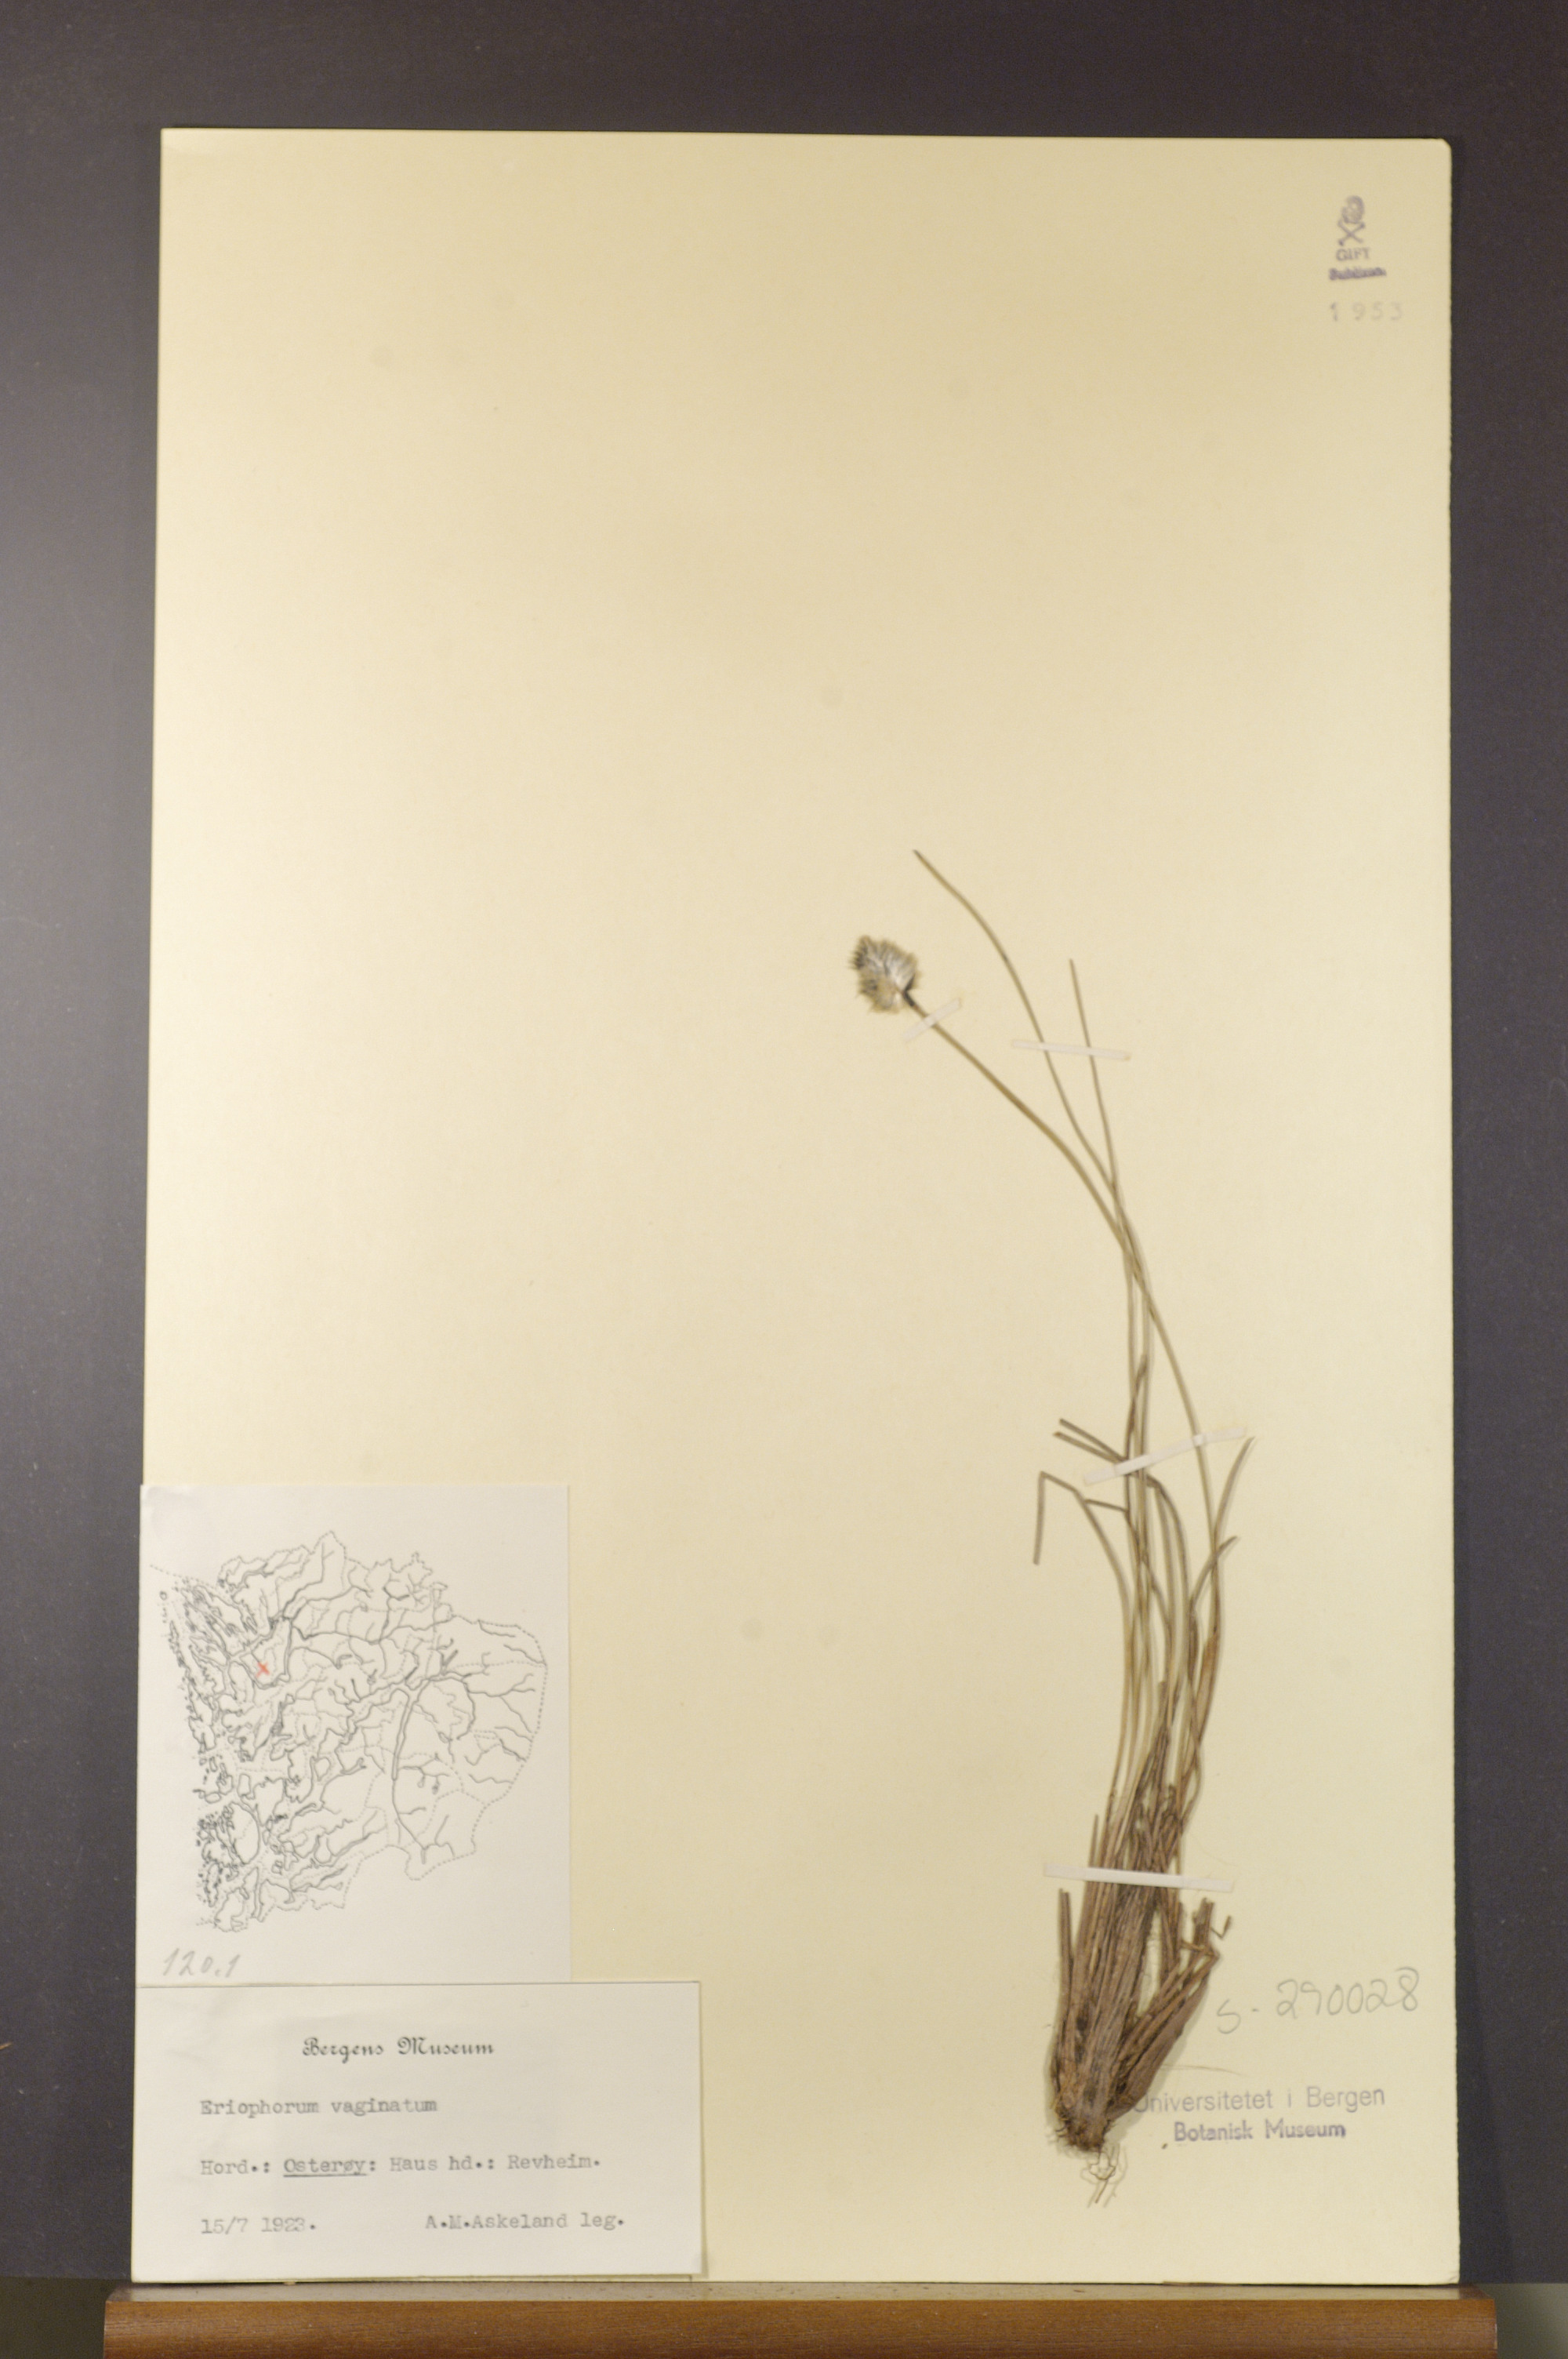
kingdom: Plantae
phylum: Tracheophyta
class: Liliopsida
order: Poales
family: Cyperaceae
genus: Eriophorum
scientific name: Eriophorum vaginatum
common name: Hare's-tail cottongrass
